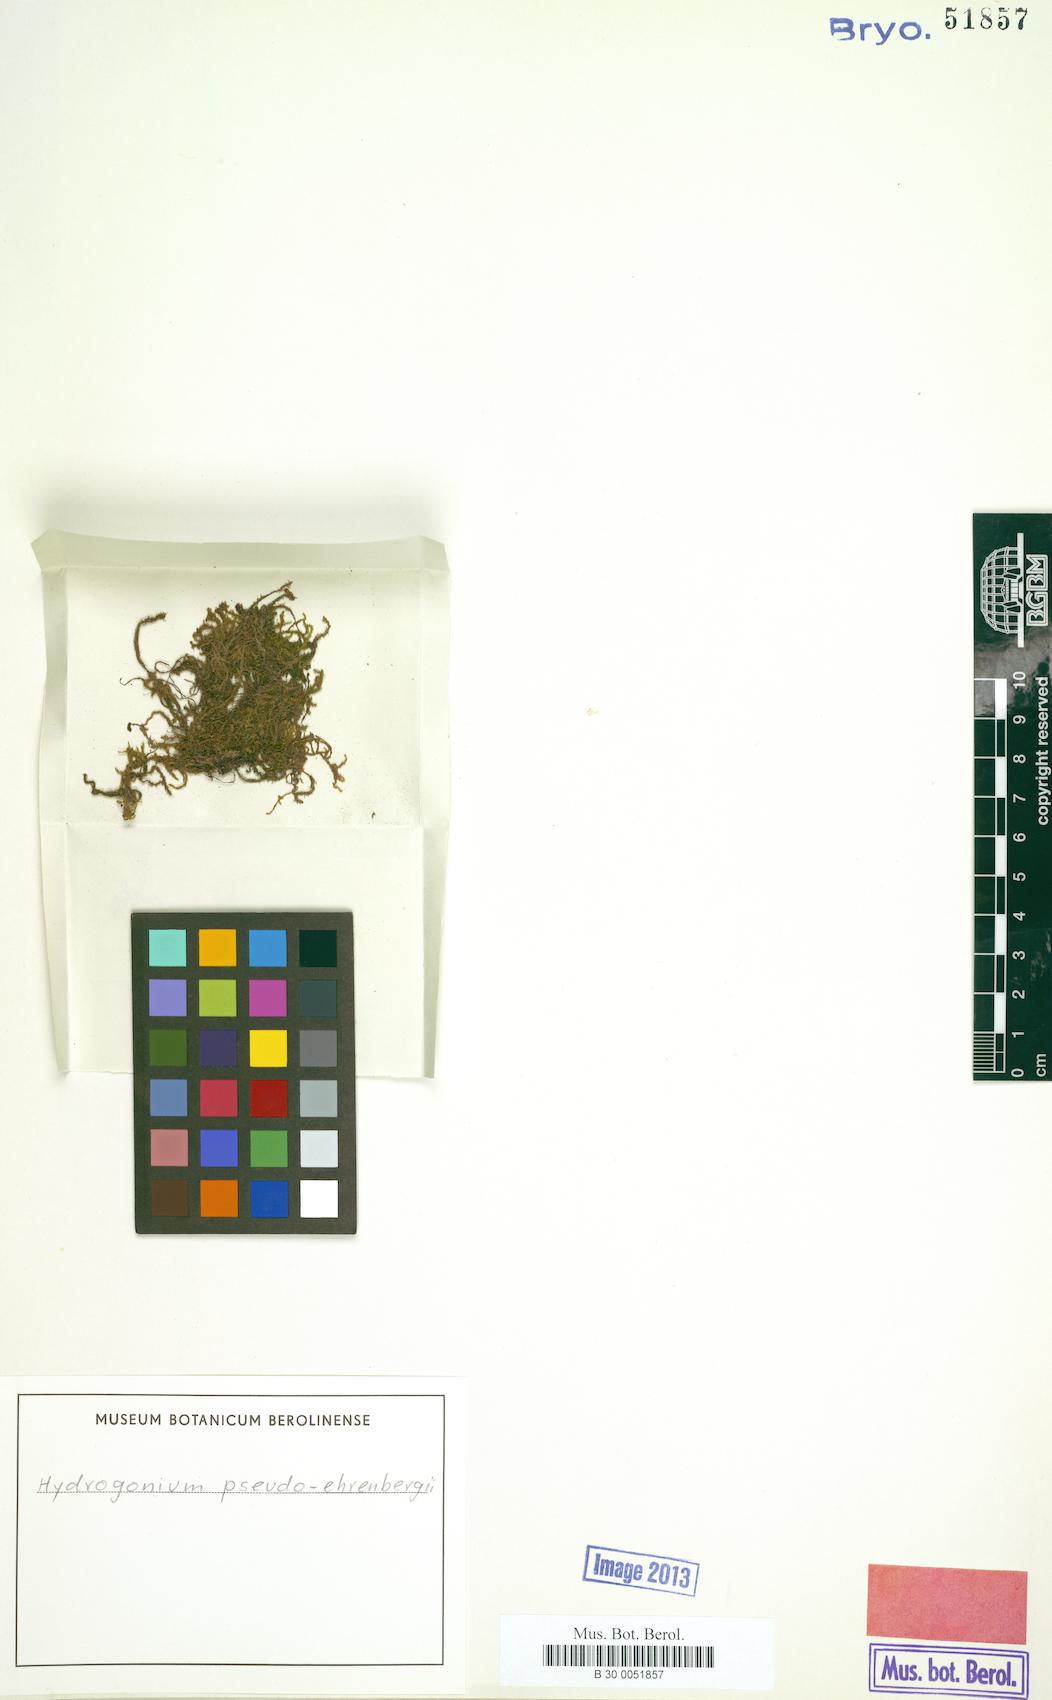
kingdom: Plantae
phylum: Bryophyta
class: Bryopsida
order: Pottiales
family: Pottiaceae
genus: Hydrogonium
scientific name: Hydrogonium pseudoehrenbergii
